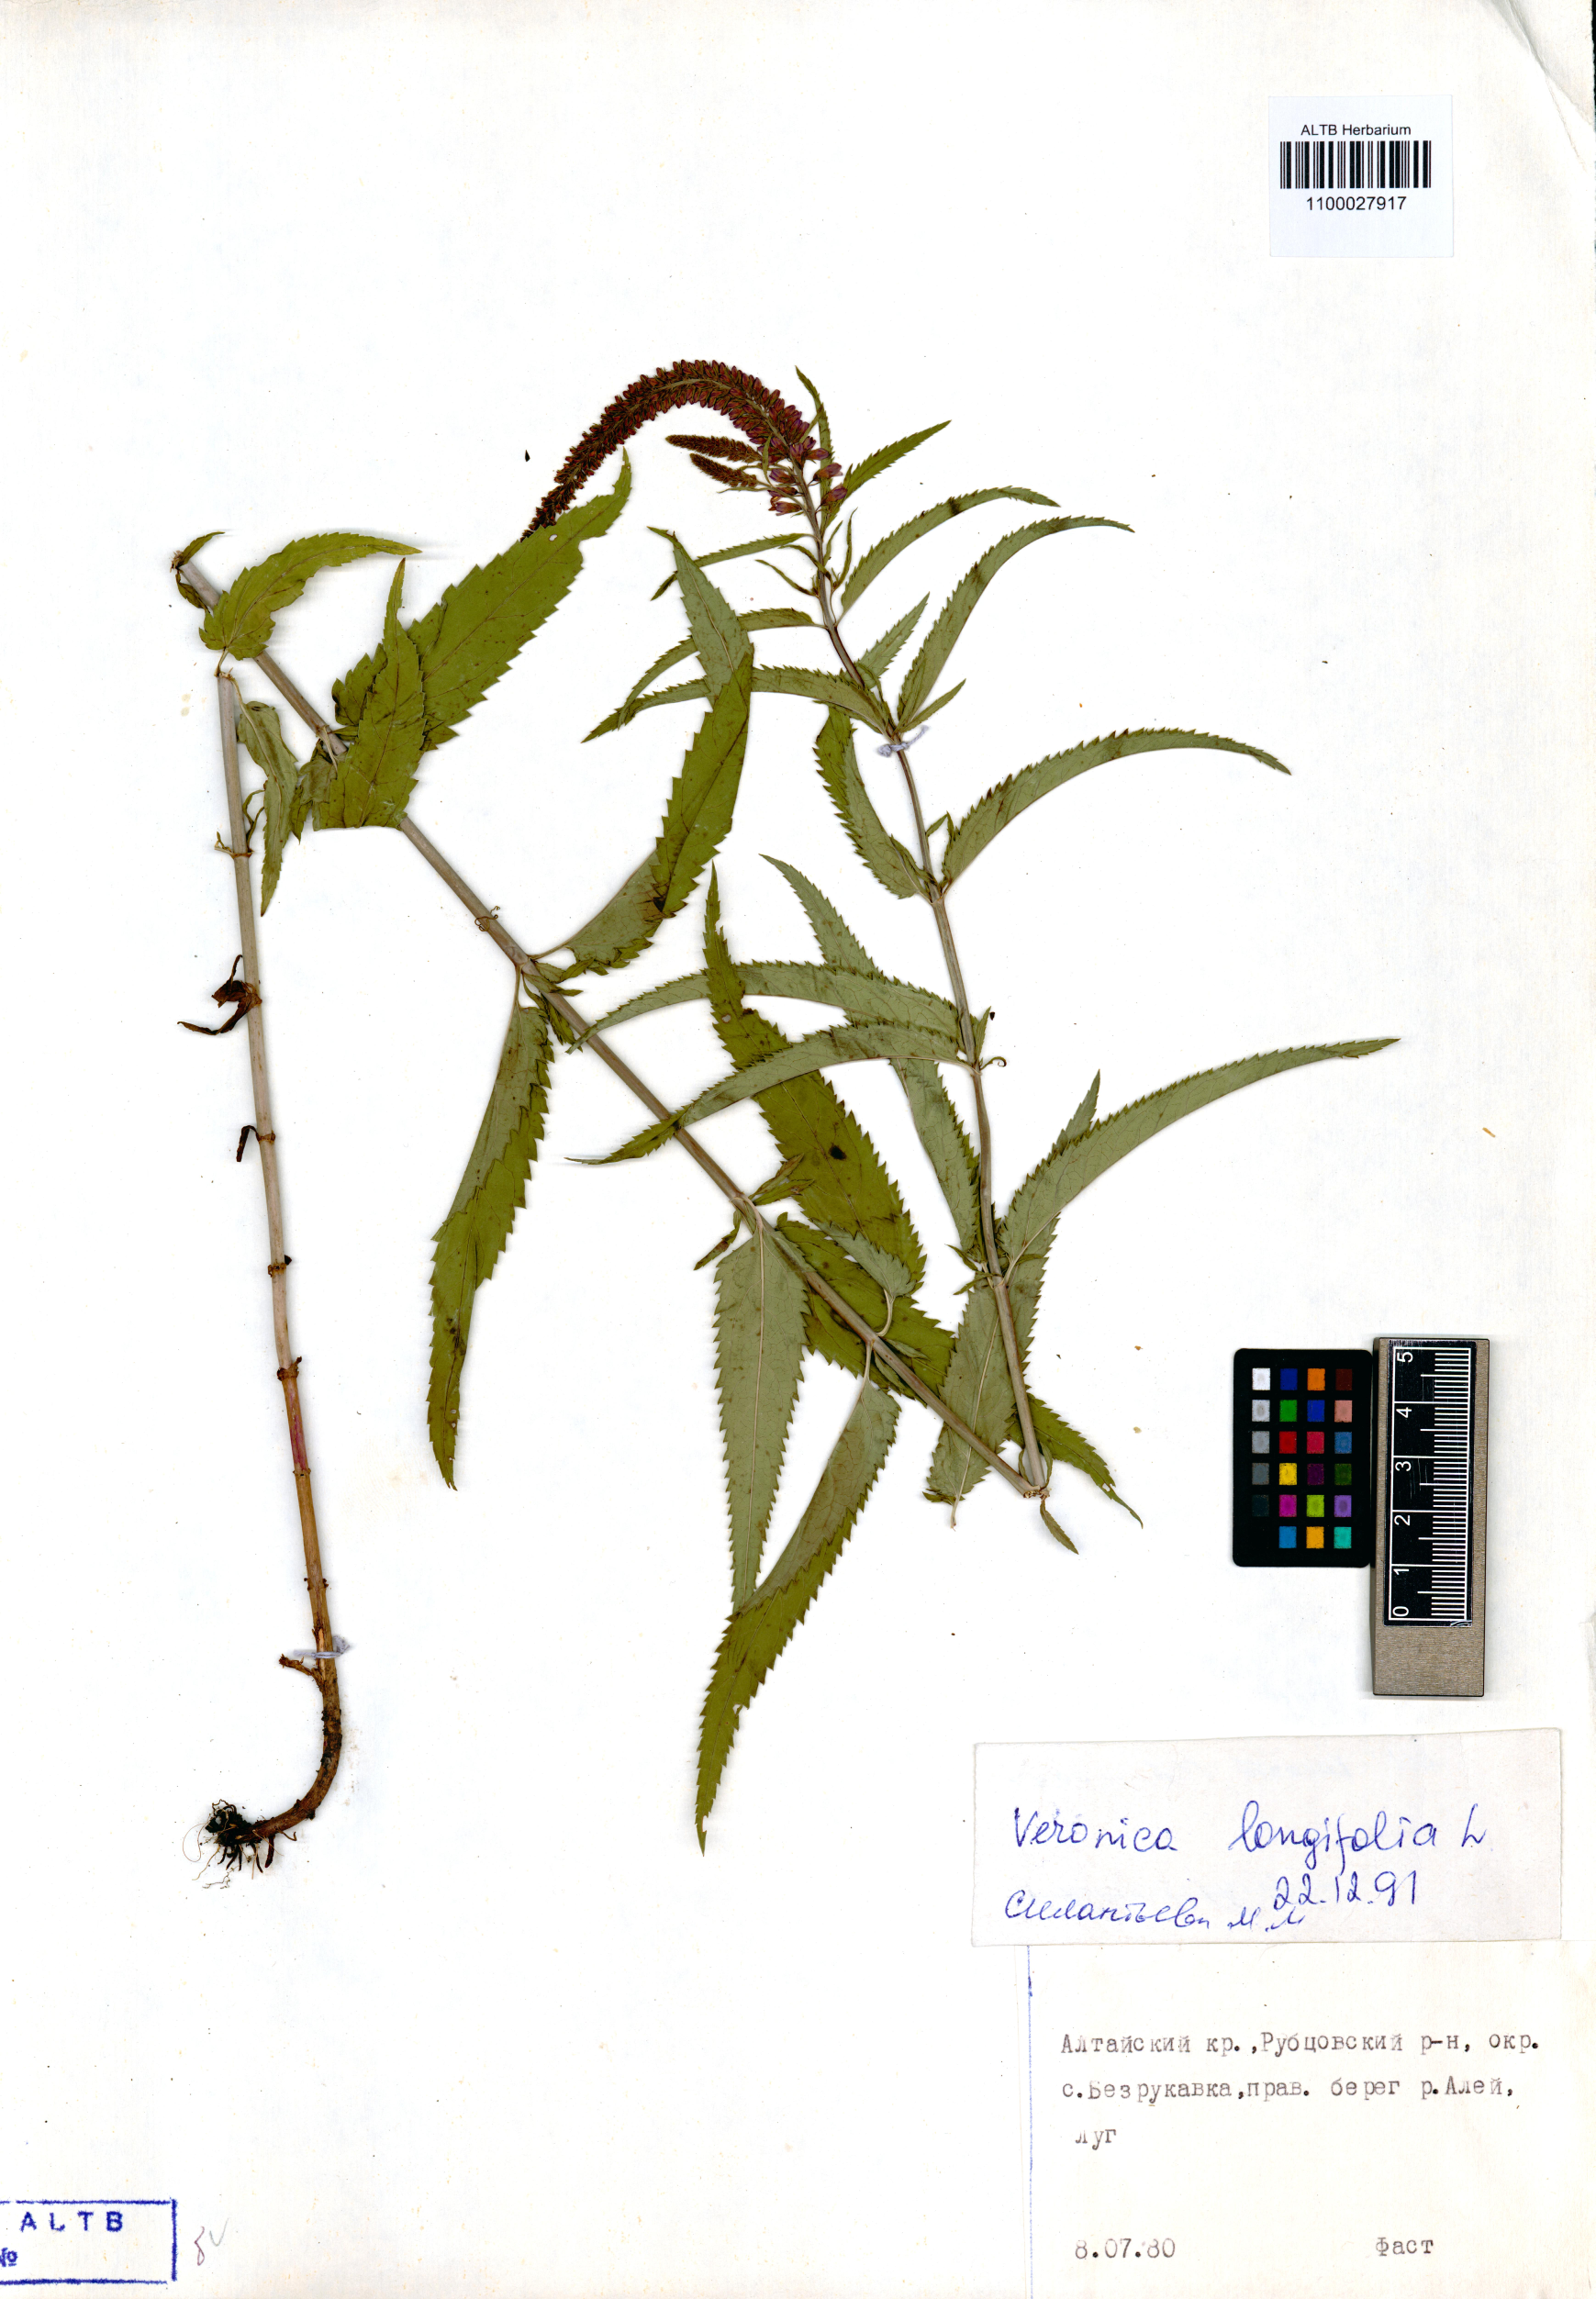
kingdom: Plantae
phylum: Tracheophyta
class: Magnoliopsida
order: Lamiales
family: Plantaginaceae
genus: Veronica
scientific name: Veronica longifolia
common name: Garden speedwell
